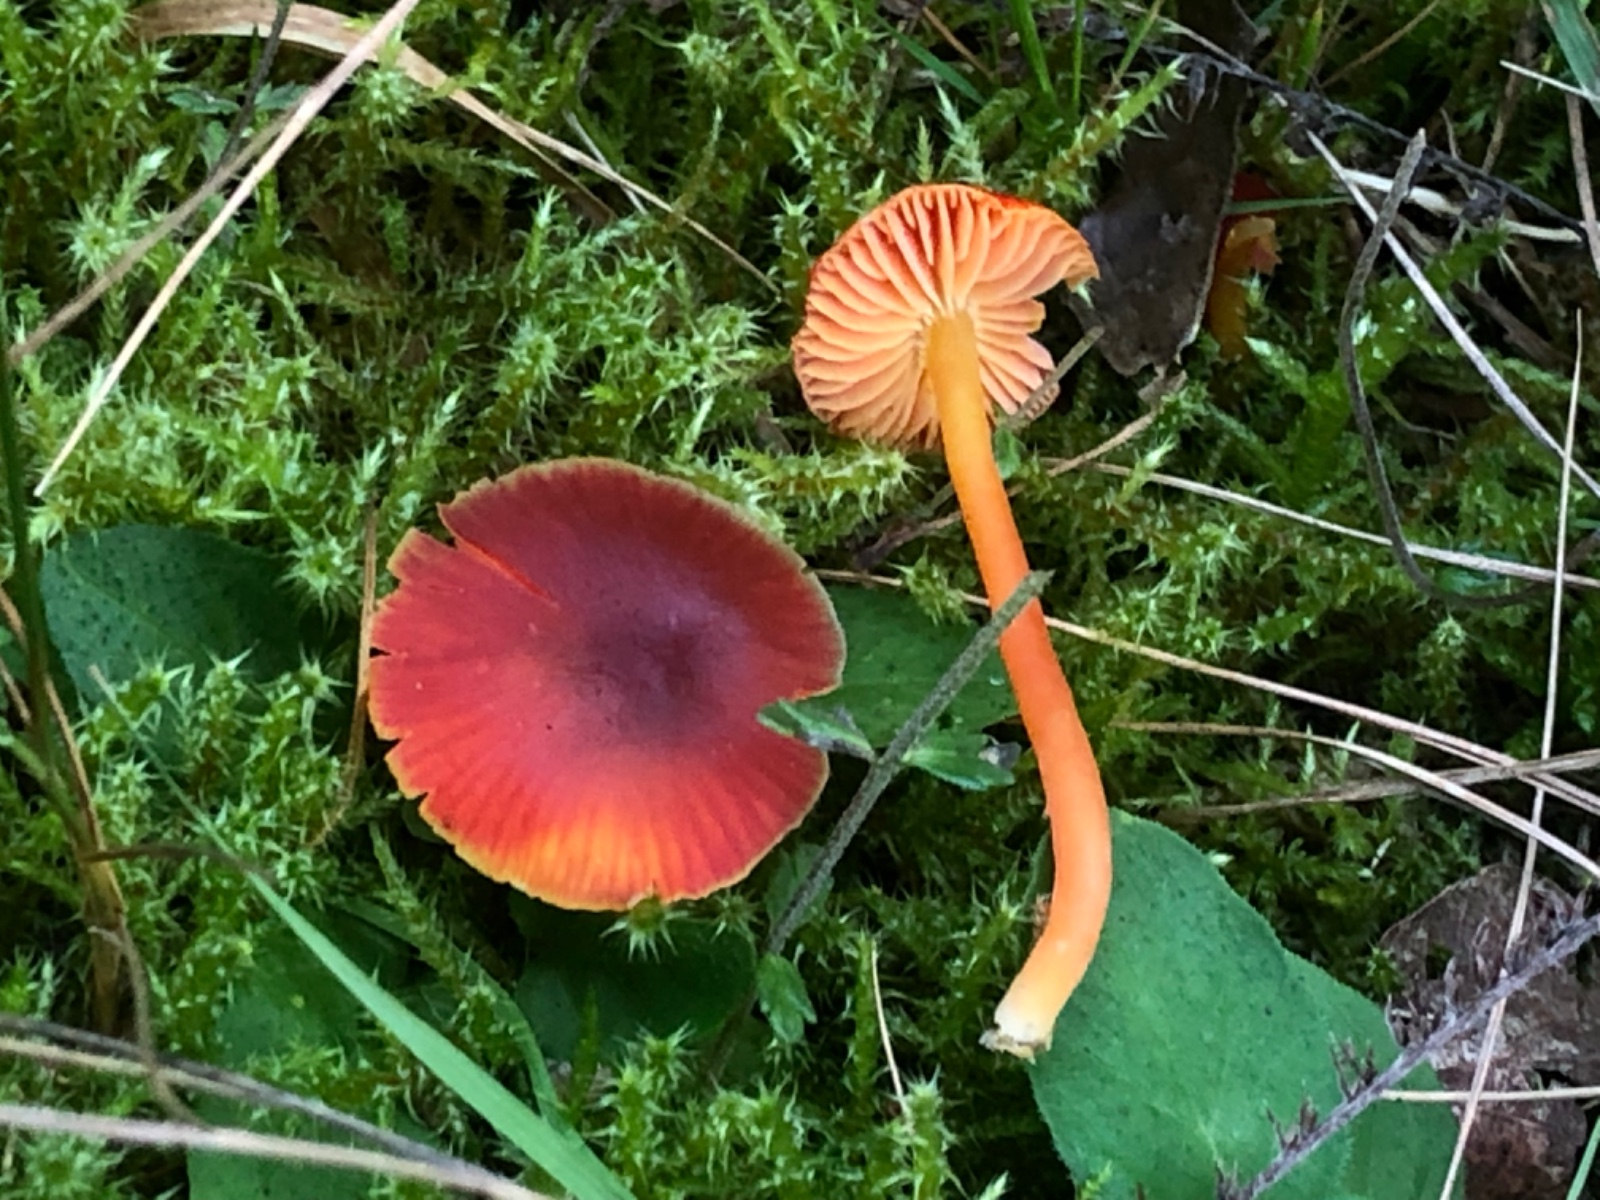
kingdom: Fungi
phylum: Basidiomycota
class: Agaricomycetes
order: Agaricales
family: Hygrophoraceae
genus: Hygrocybe
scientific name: Hygrocybe phaeococcinea
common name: sortdugget vokshat
